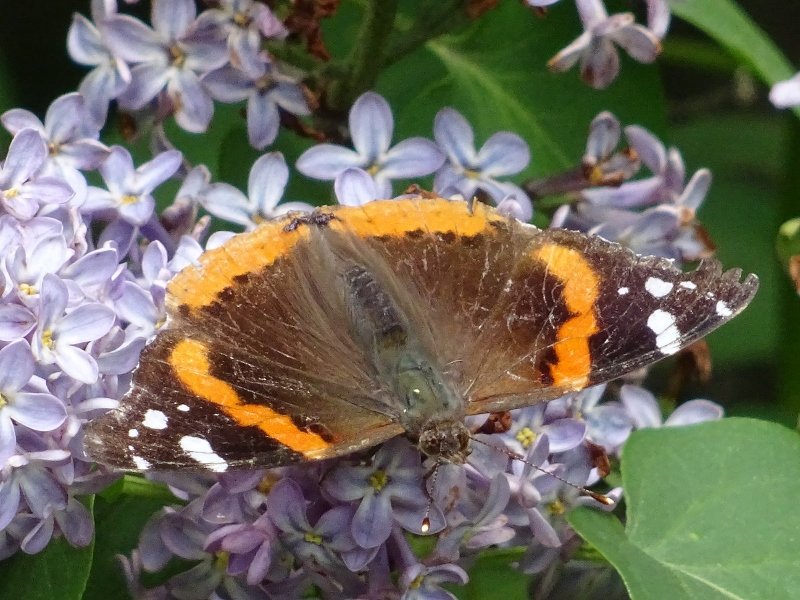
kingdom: Animalia
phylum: Arthropoda
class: Insecta
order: Lepidoptera
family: Nymphalidae
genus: Vanessa
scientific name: Vanessa atalanta
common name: Red Admiral
